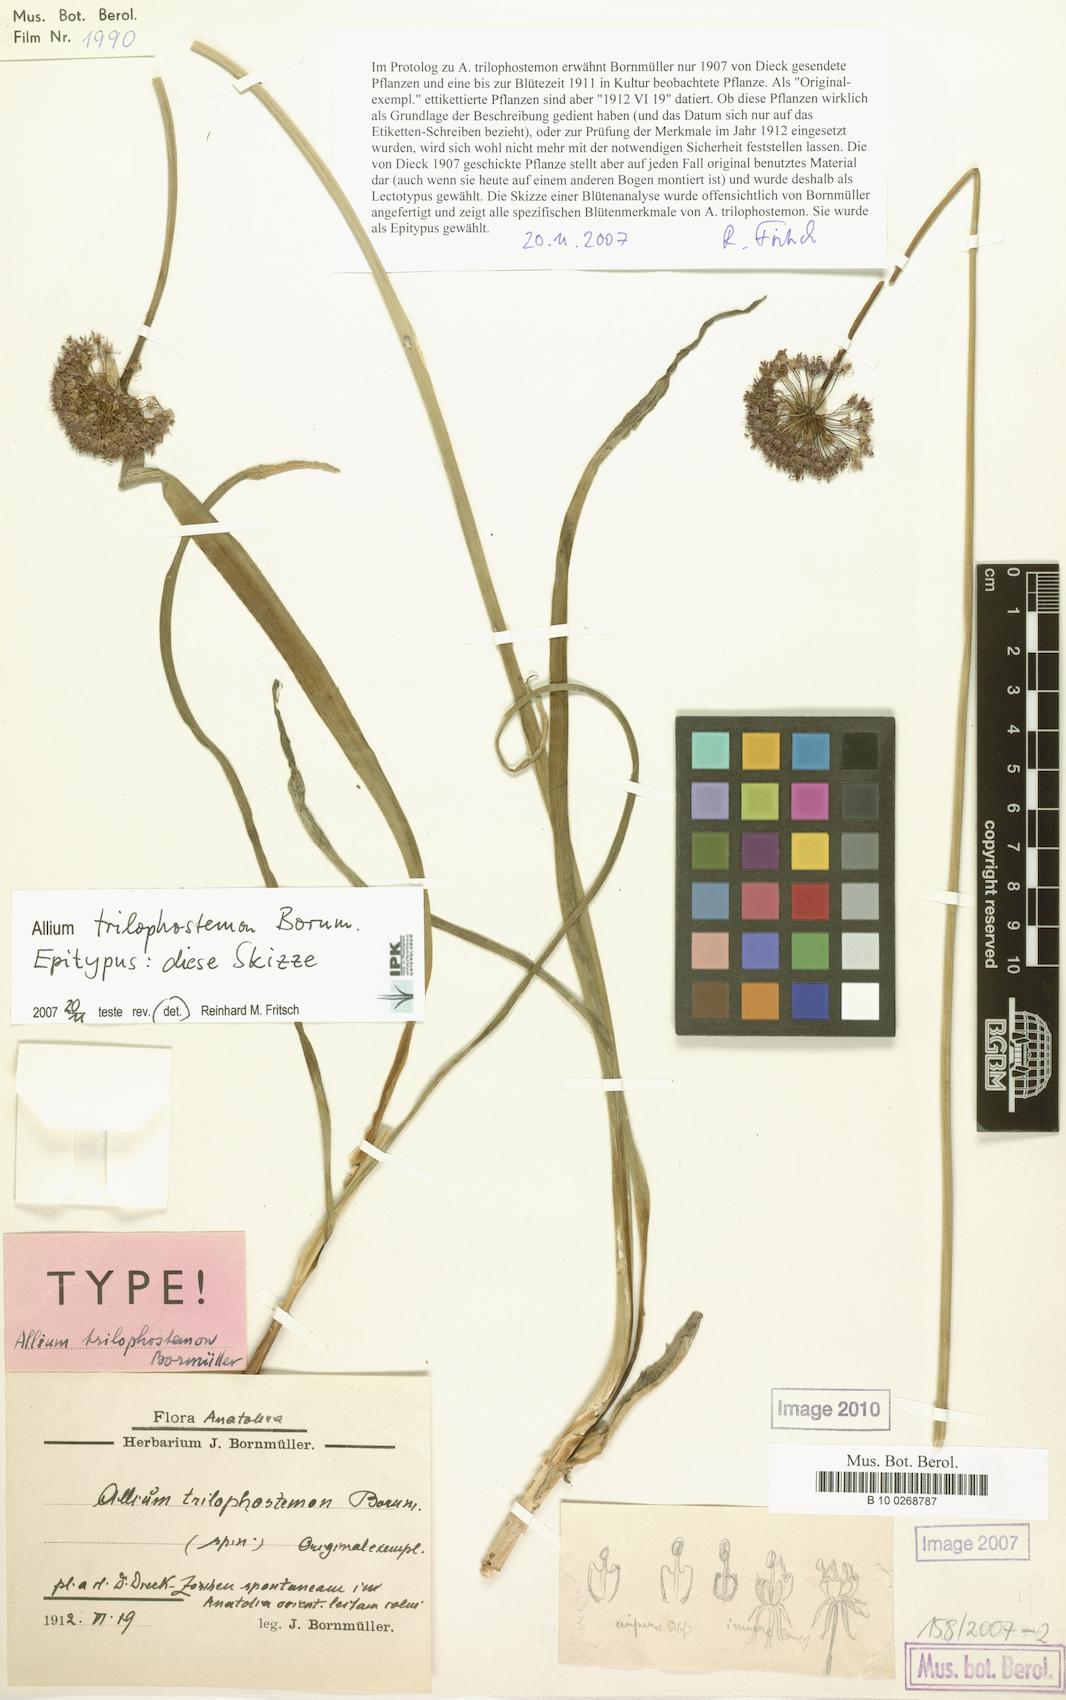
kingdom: Plantae
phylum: Tracheophyta
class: Liliopsida
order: Asparagales
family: Amaryllidaceae
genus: Allium
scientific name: Allium cardiostemon
